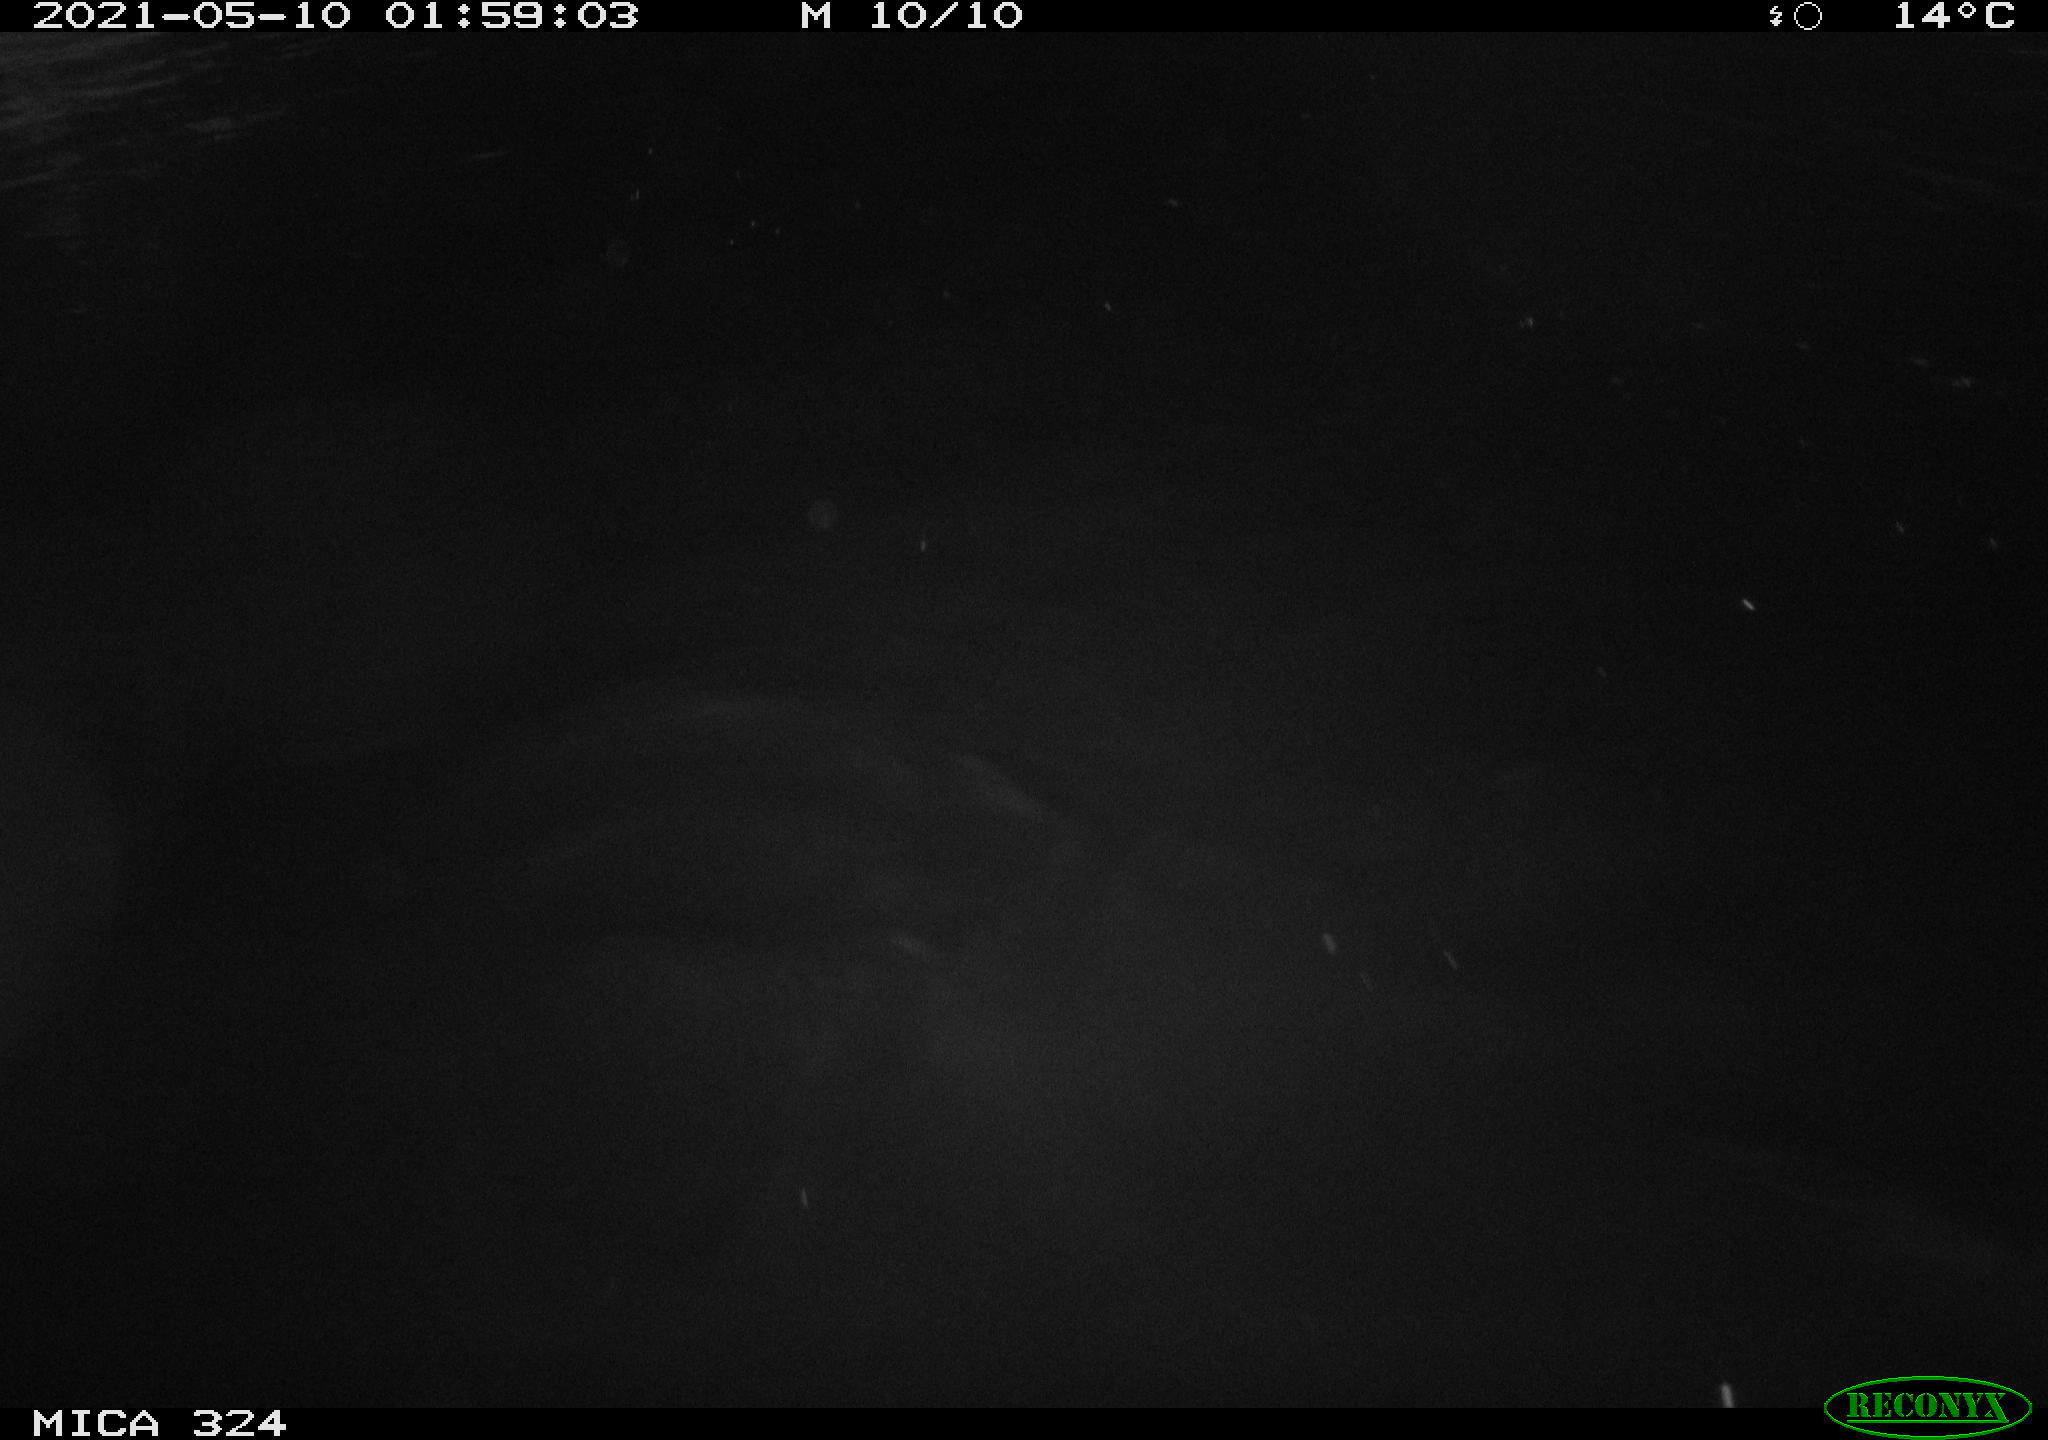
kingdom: Animalia
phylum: Chordata
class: Aves
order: Anseriformes
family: Anatidae
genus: Anas
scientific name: Anas platyrhynchos
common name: Mallard
